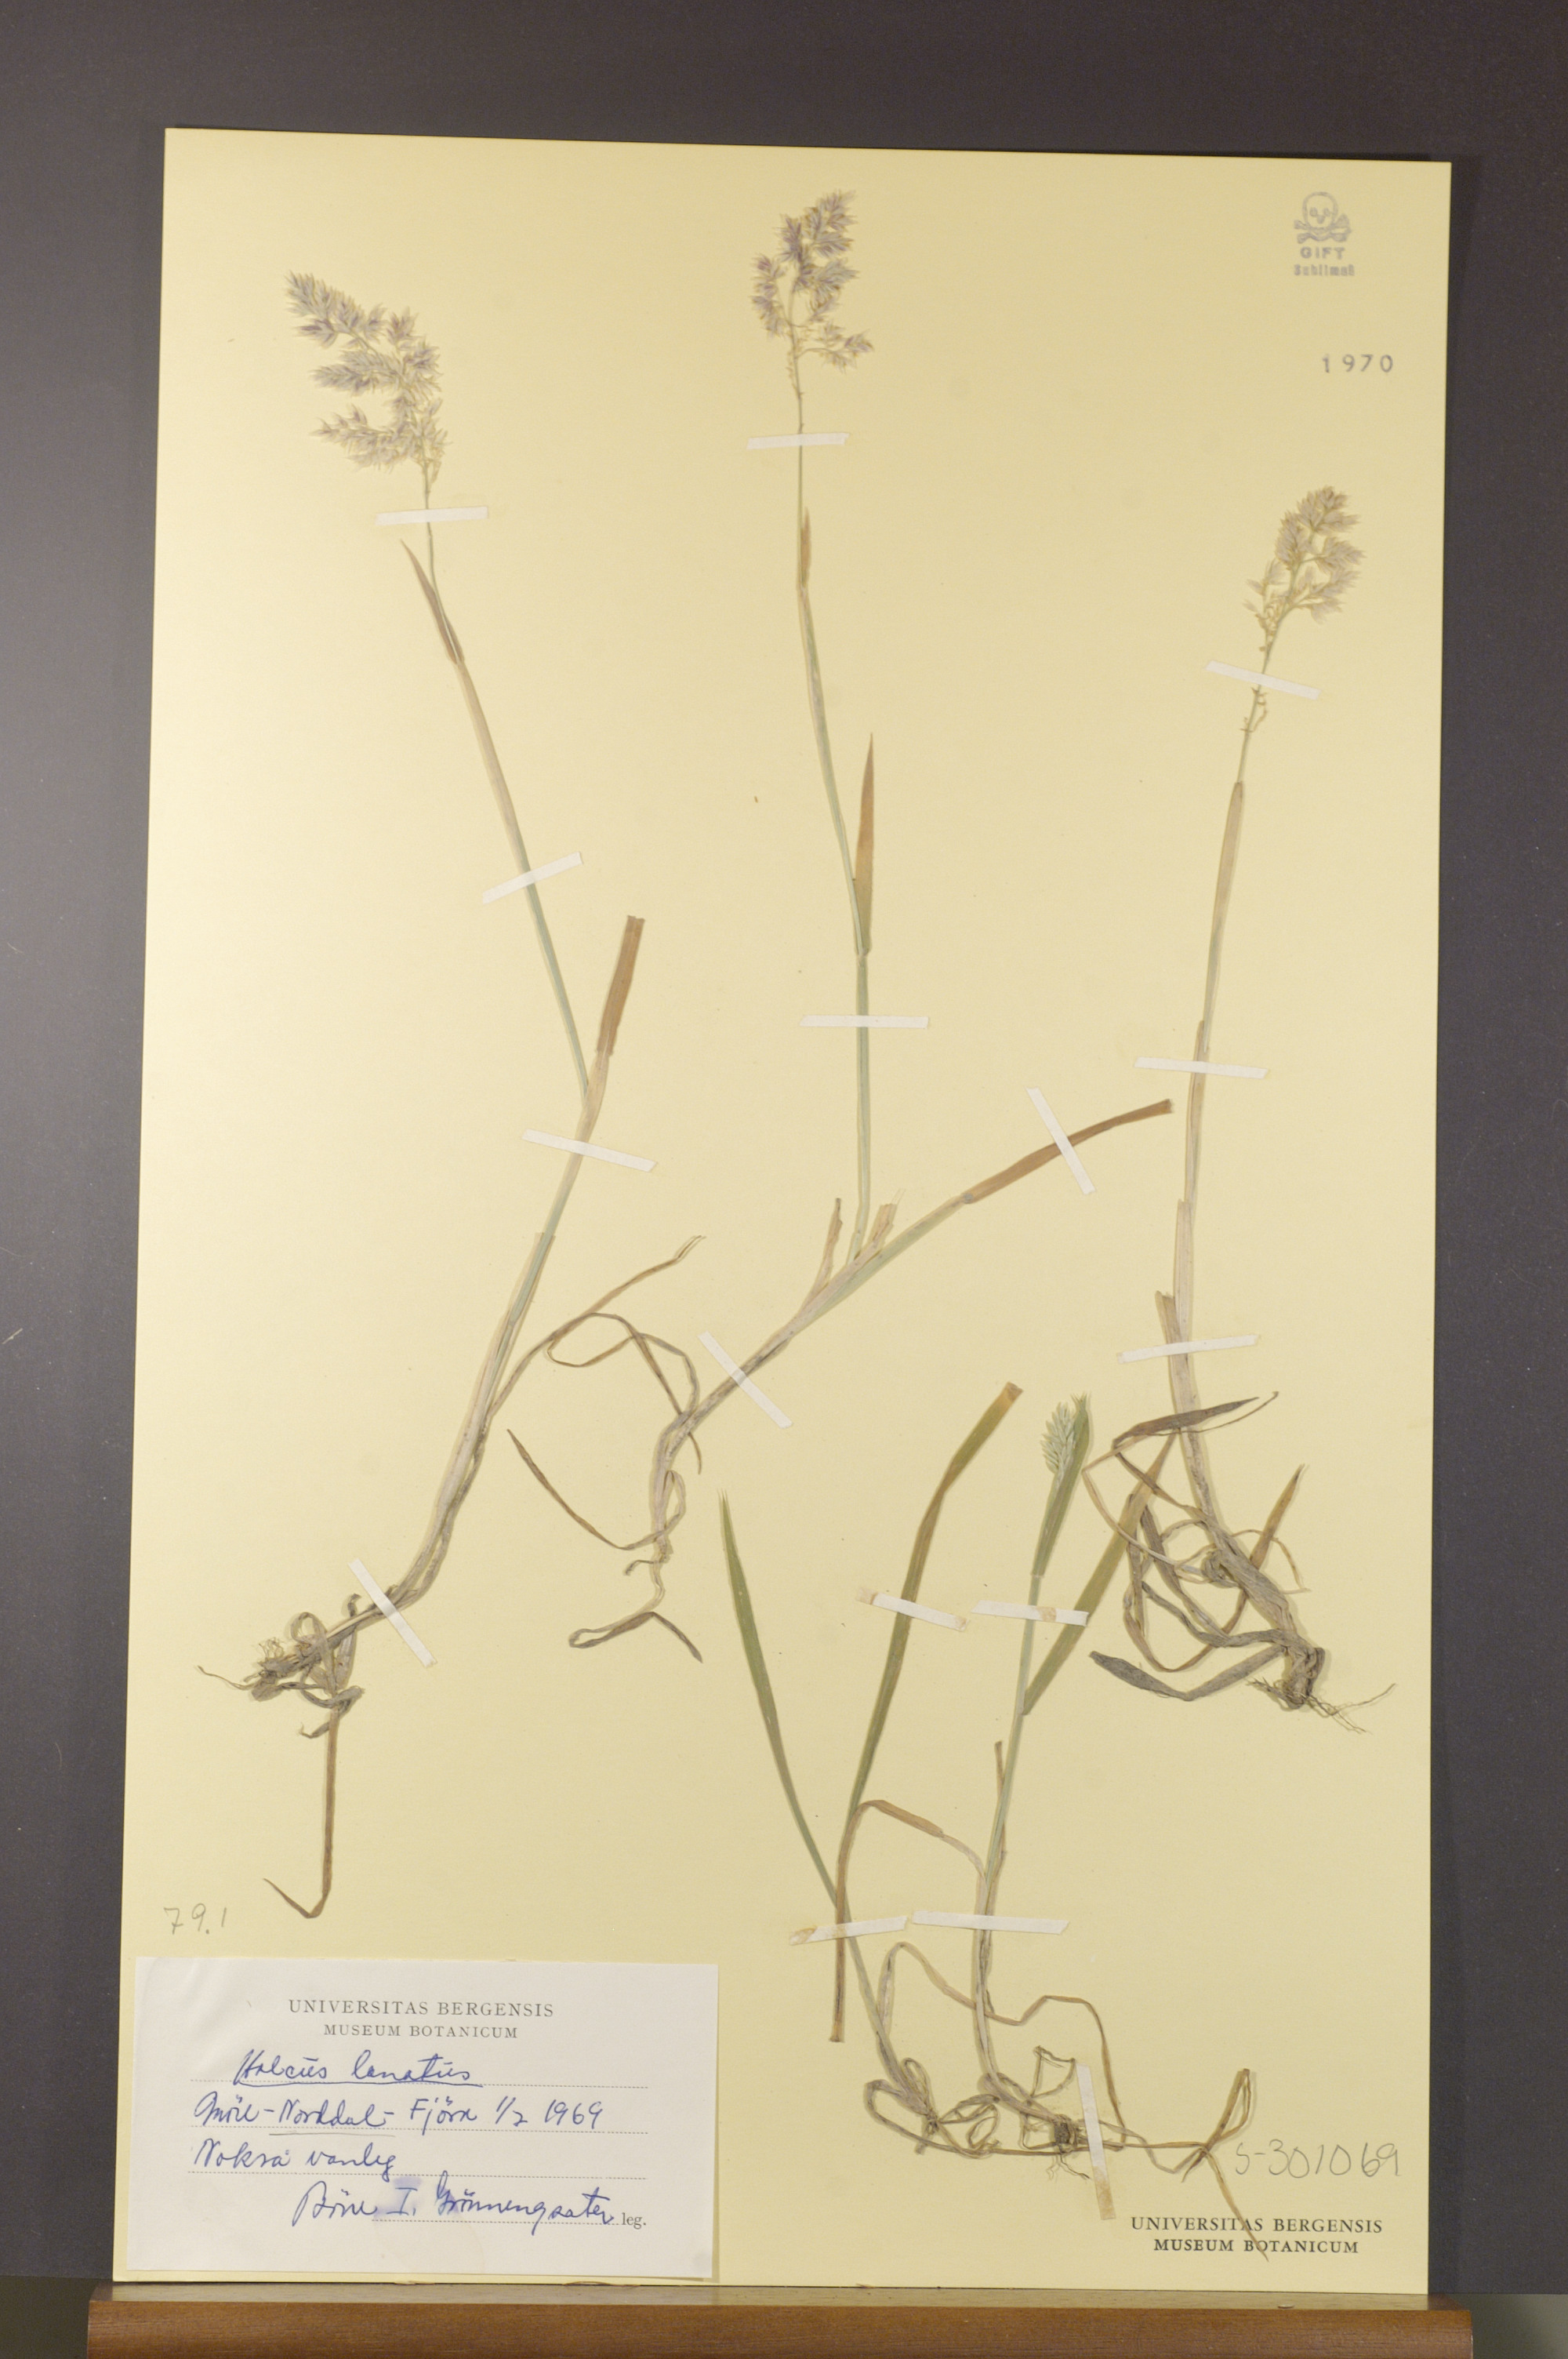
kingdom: Plantae
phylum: Tracheophyta
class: Liliopsida
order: Poales
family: Poaceae
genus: Holcus
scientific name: Holcus lanatus
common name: Yorkshire-fog
